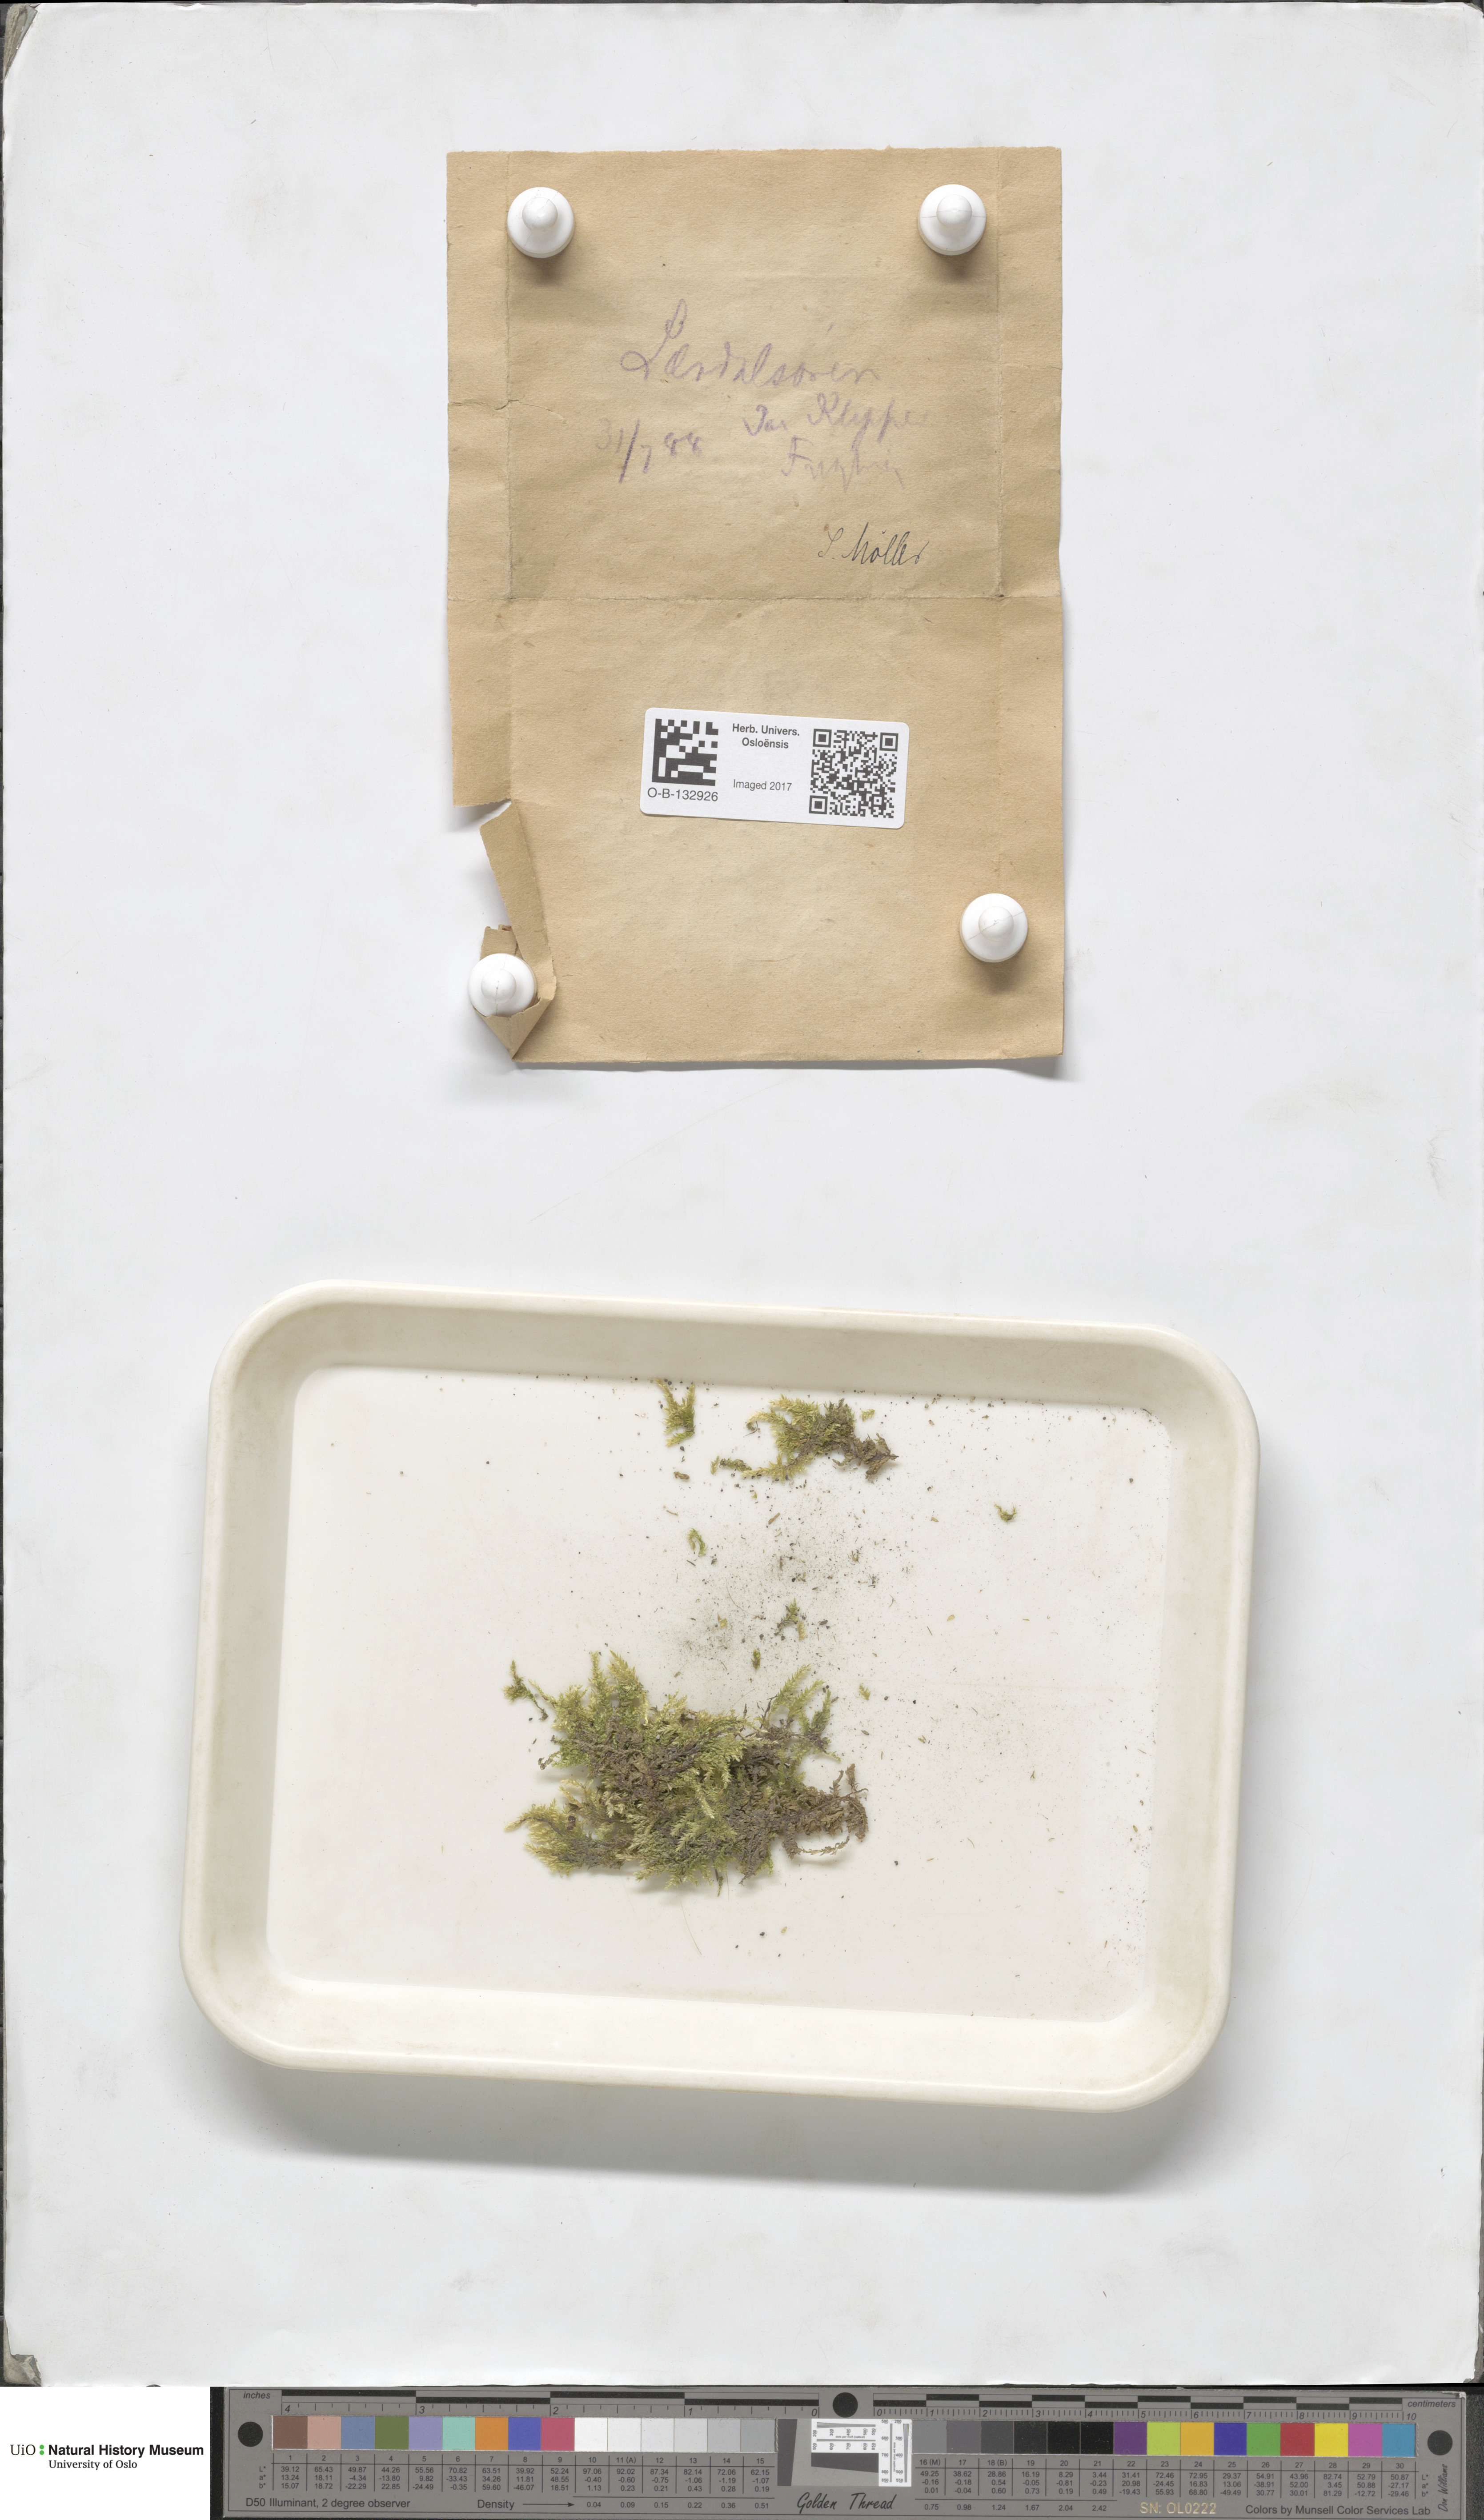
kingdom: Plantae
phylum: Bryophyta
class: Bryopsida
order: Hypnales
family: Brachytheciaceae
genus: Sciuro-hypnum
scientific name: Sciuro-hypnum plumosum
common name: Rusty feather-moss
